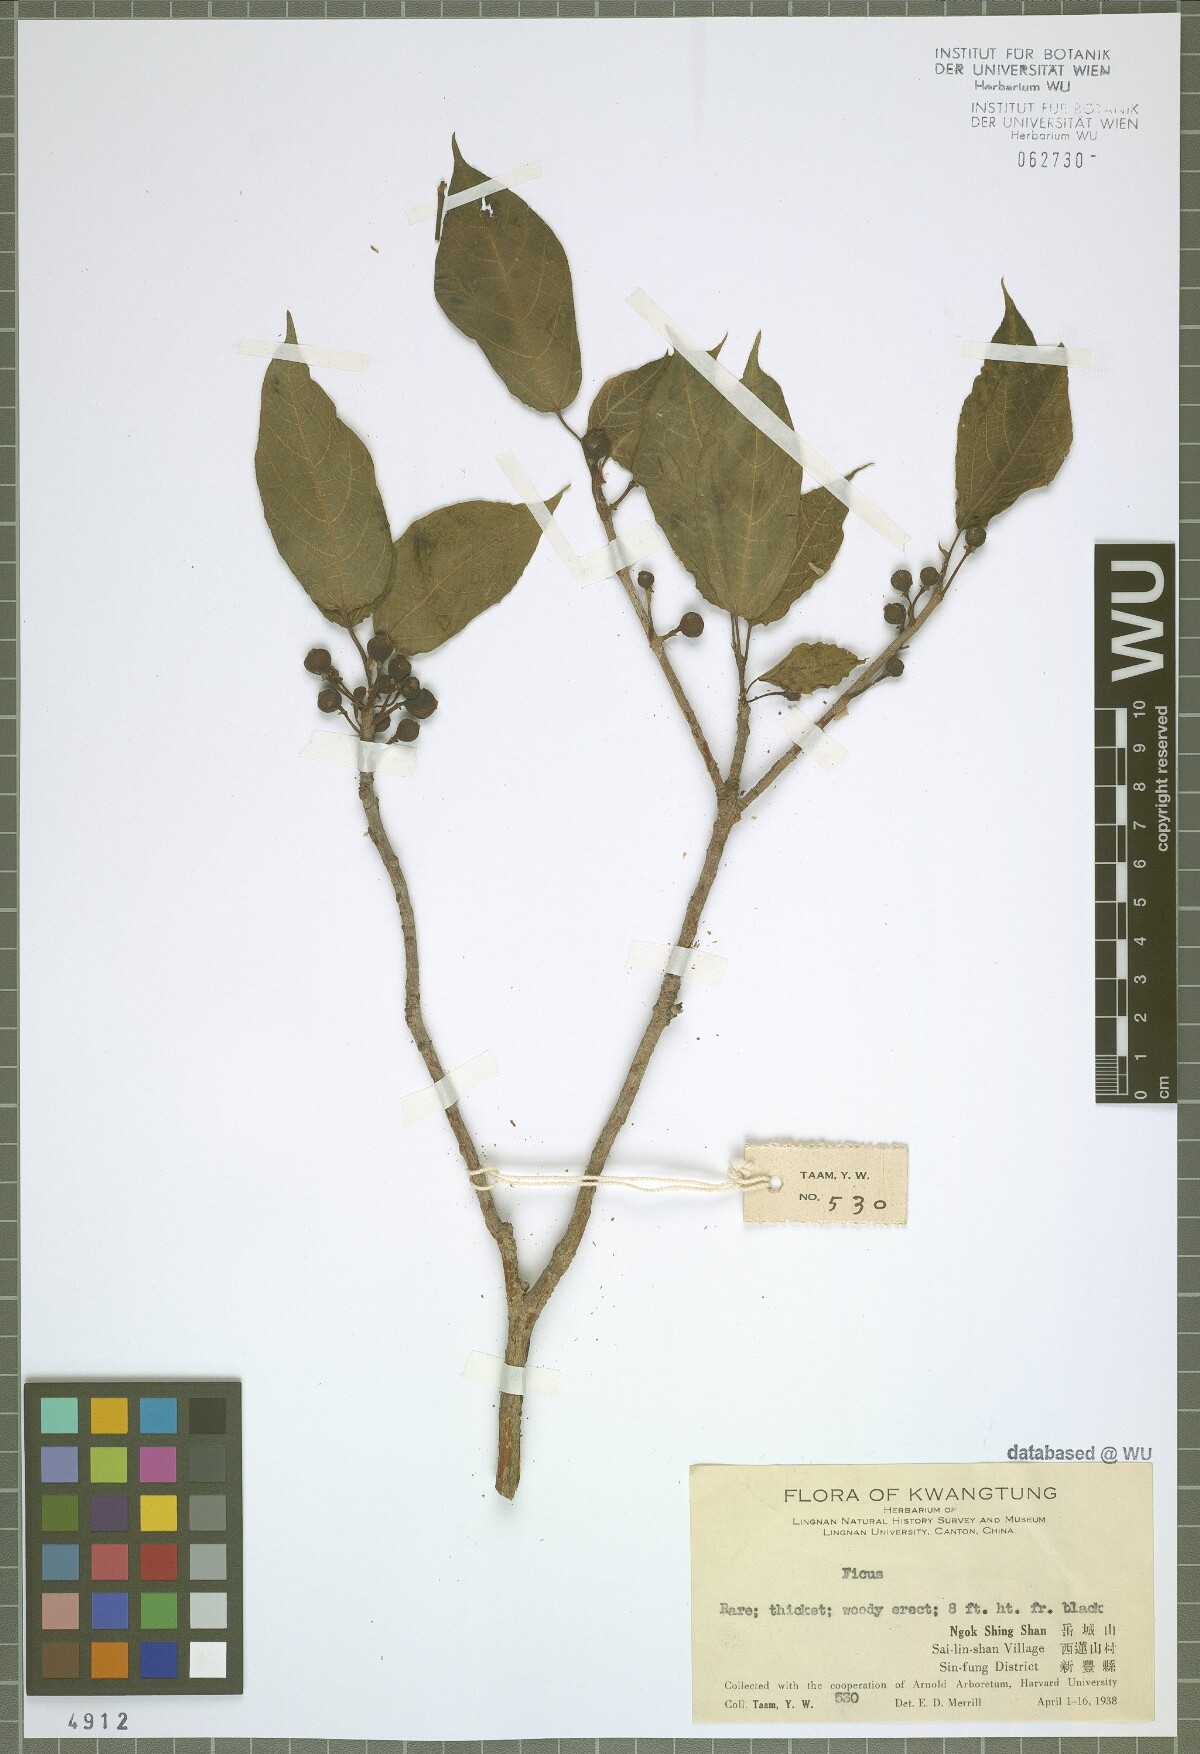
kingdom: Plantae
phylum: Tracheophyta
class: Magnoliopsida
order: Rosales
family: Moraceae
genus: Ficus
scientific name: Ficus
